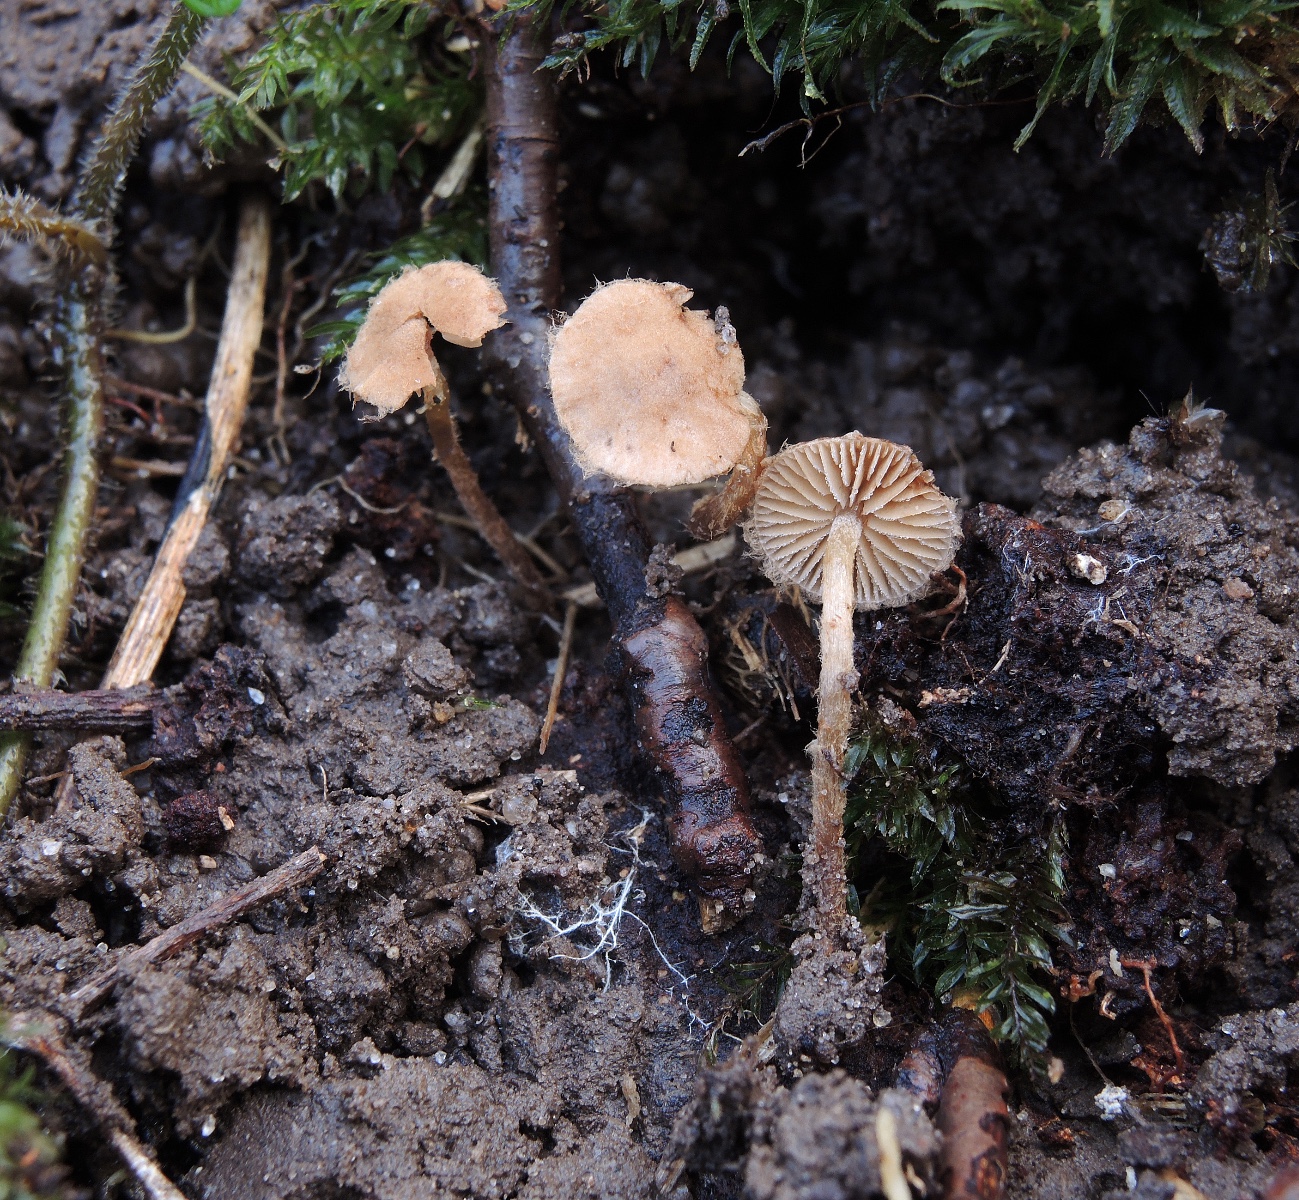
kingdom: Fungi
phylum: Basidiomycota
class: Agaricomycetes
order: Agaricales
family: Tubariaceae
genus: Flammulaster
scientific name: Flammulaster granulosus
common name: gulbrun grynskælhat
